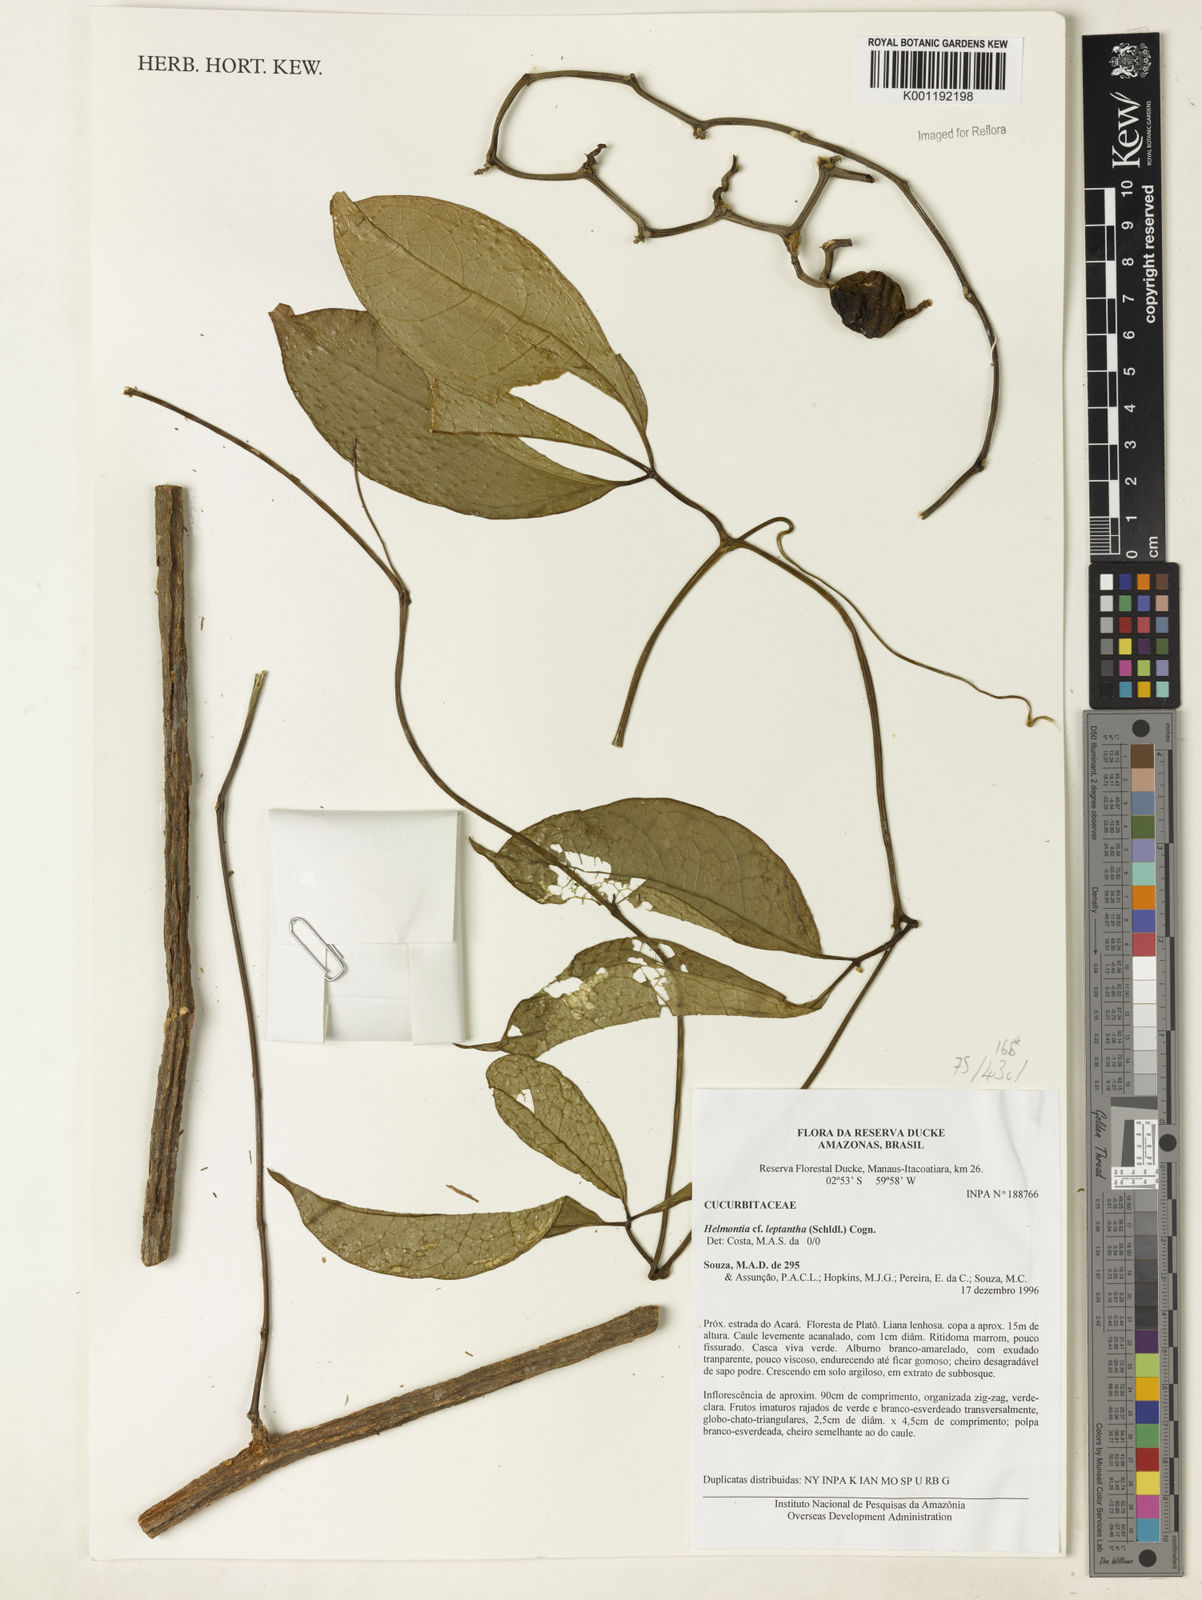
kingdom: Plantae
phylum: Tracheophyta
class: Magnoliopsida
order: Cucurbitales
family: Cucurbitaceae
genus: Helmontia
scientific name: Helmontia leptantha
